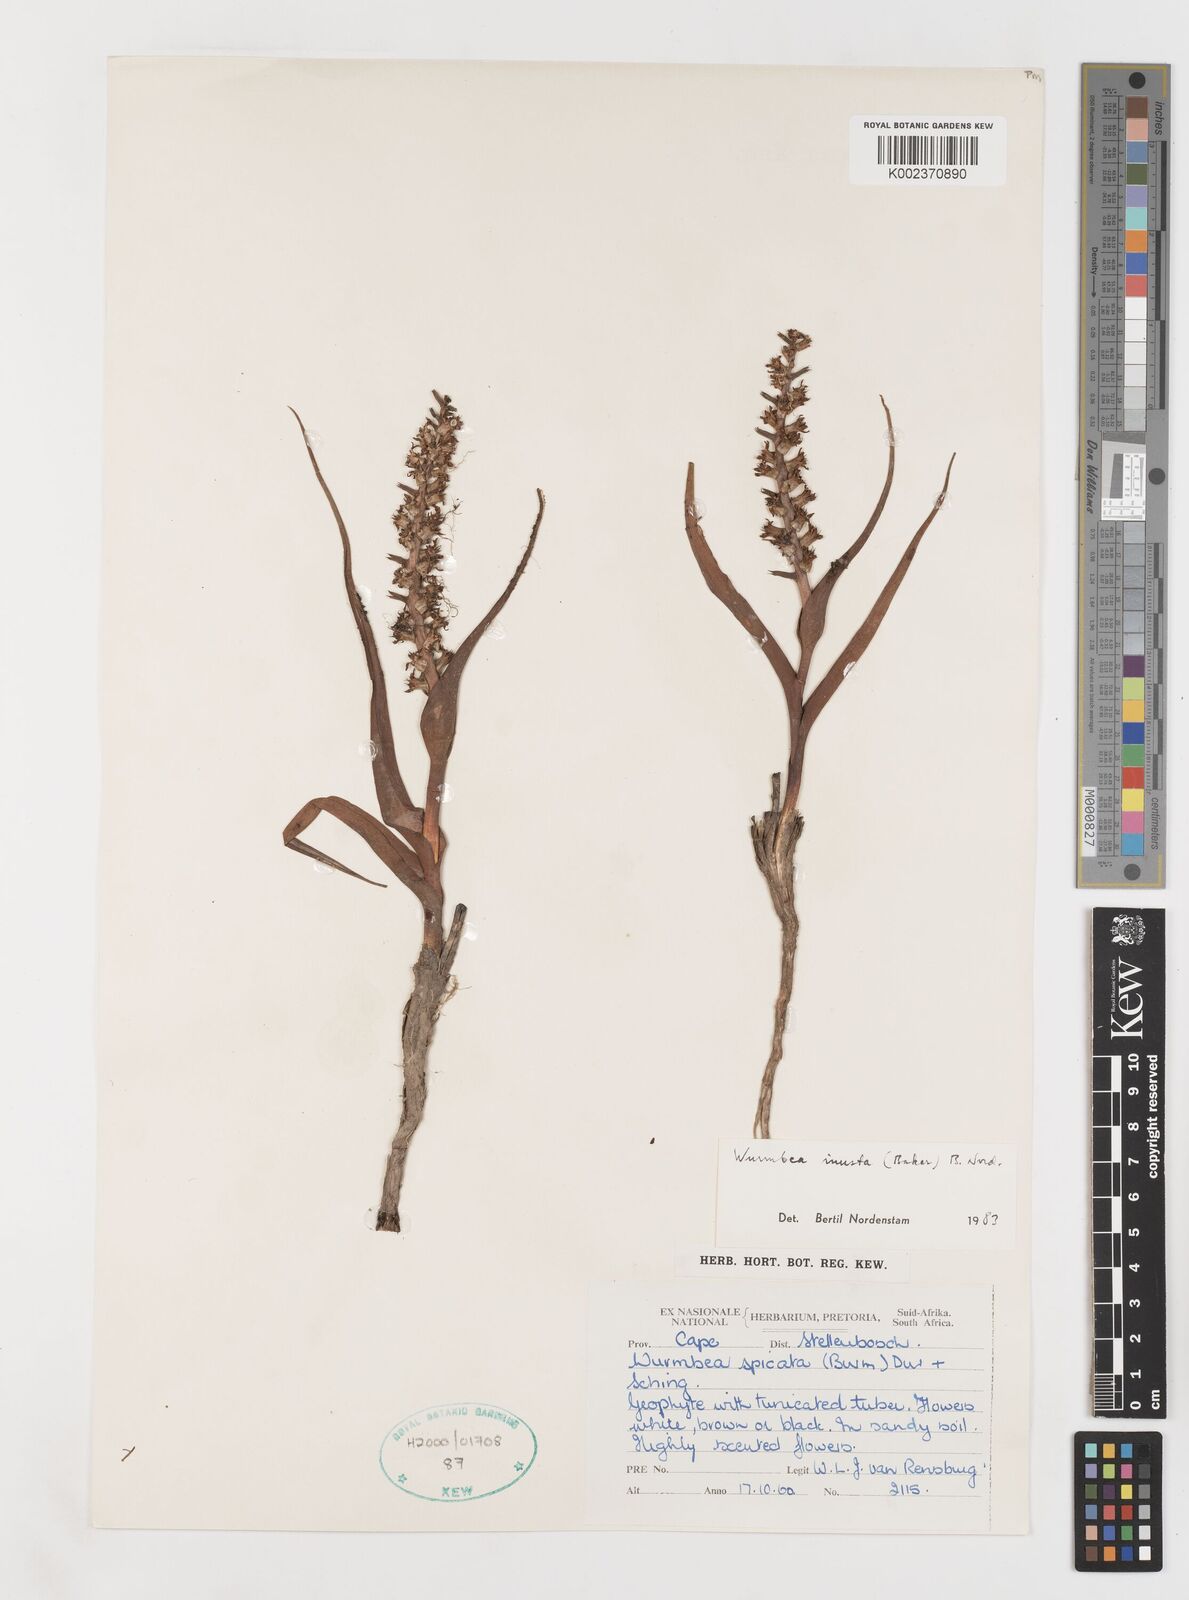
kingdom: Plantae
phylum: Tracheophyta
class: Liliopsida
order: Liliales
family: Colchicaceae
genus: Wurmbea
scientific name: Wurmbea inusta
